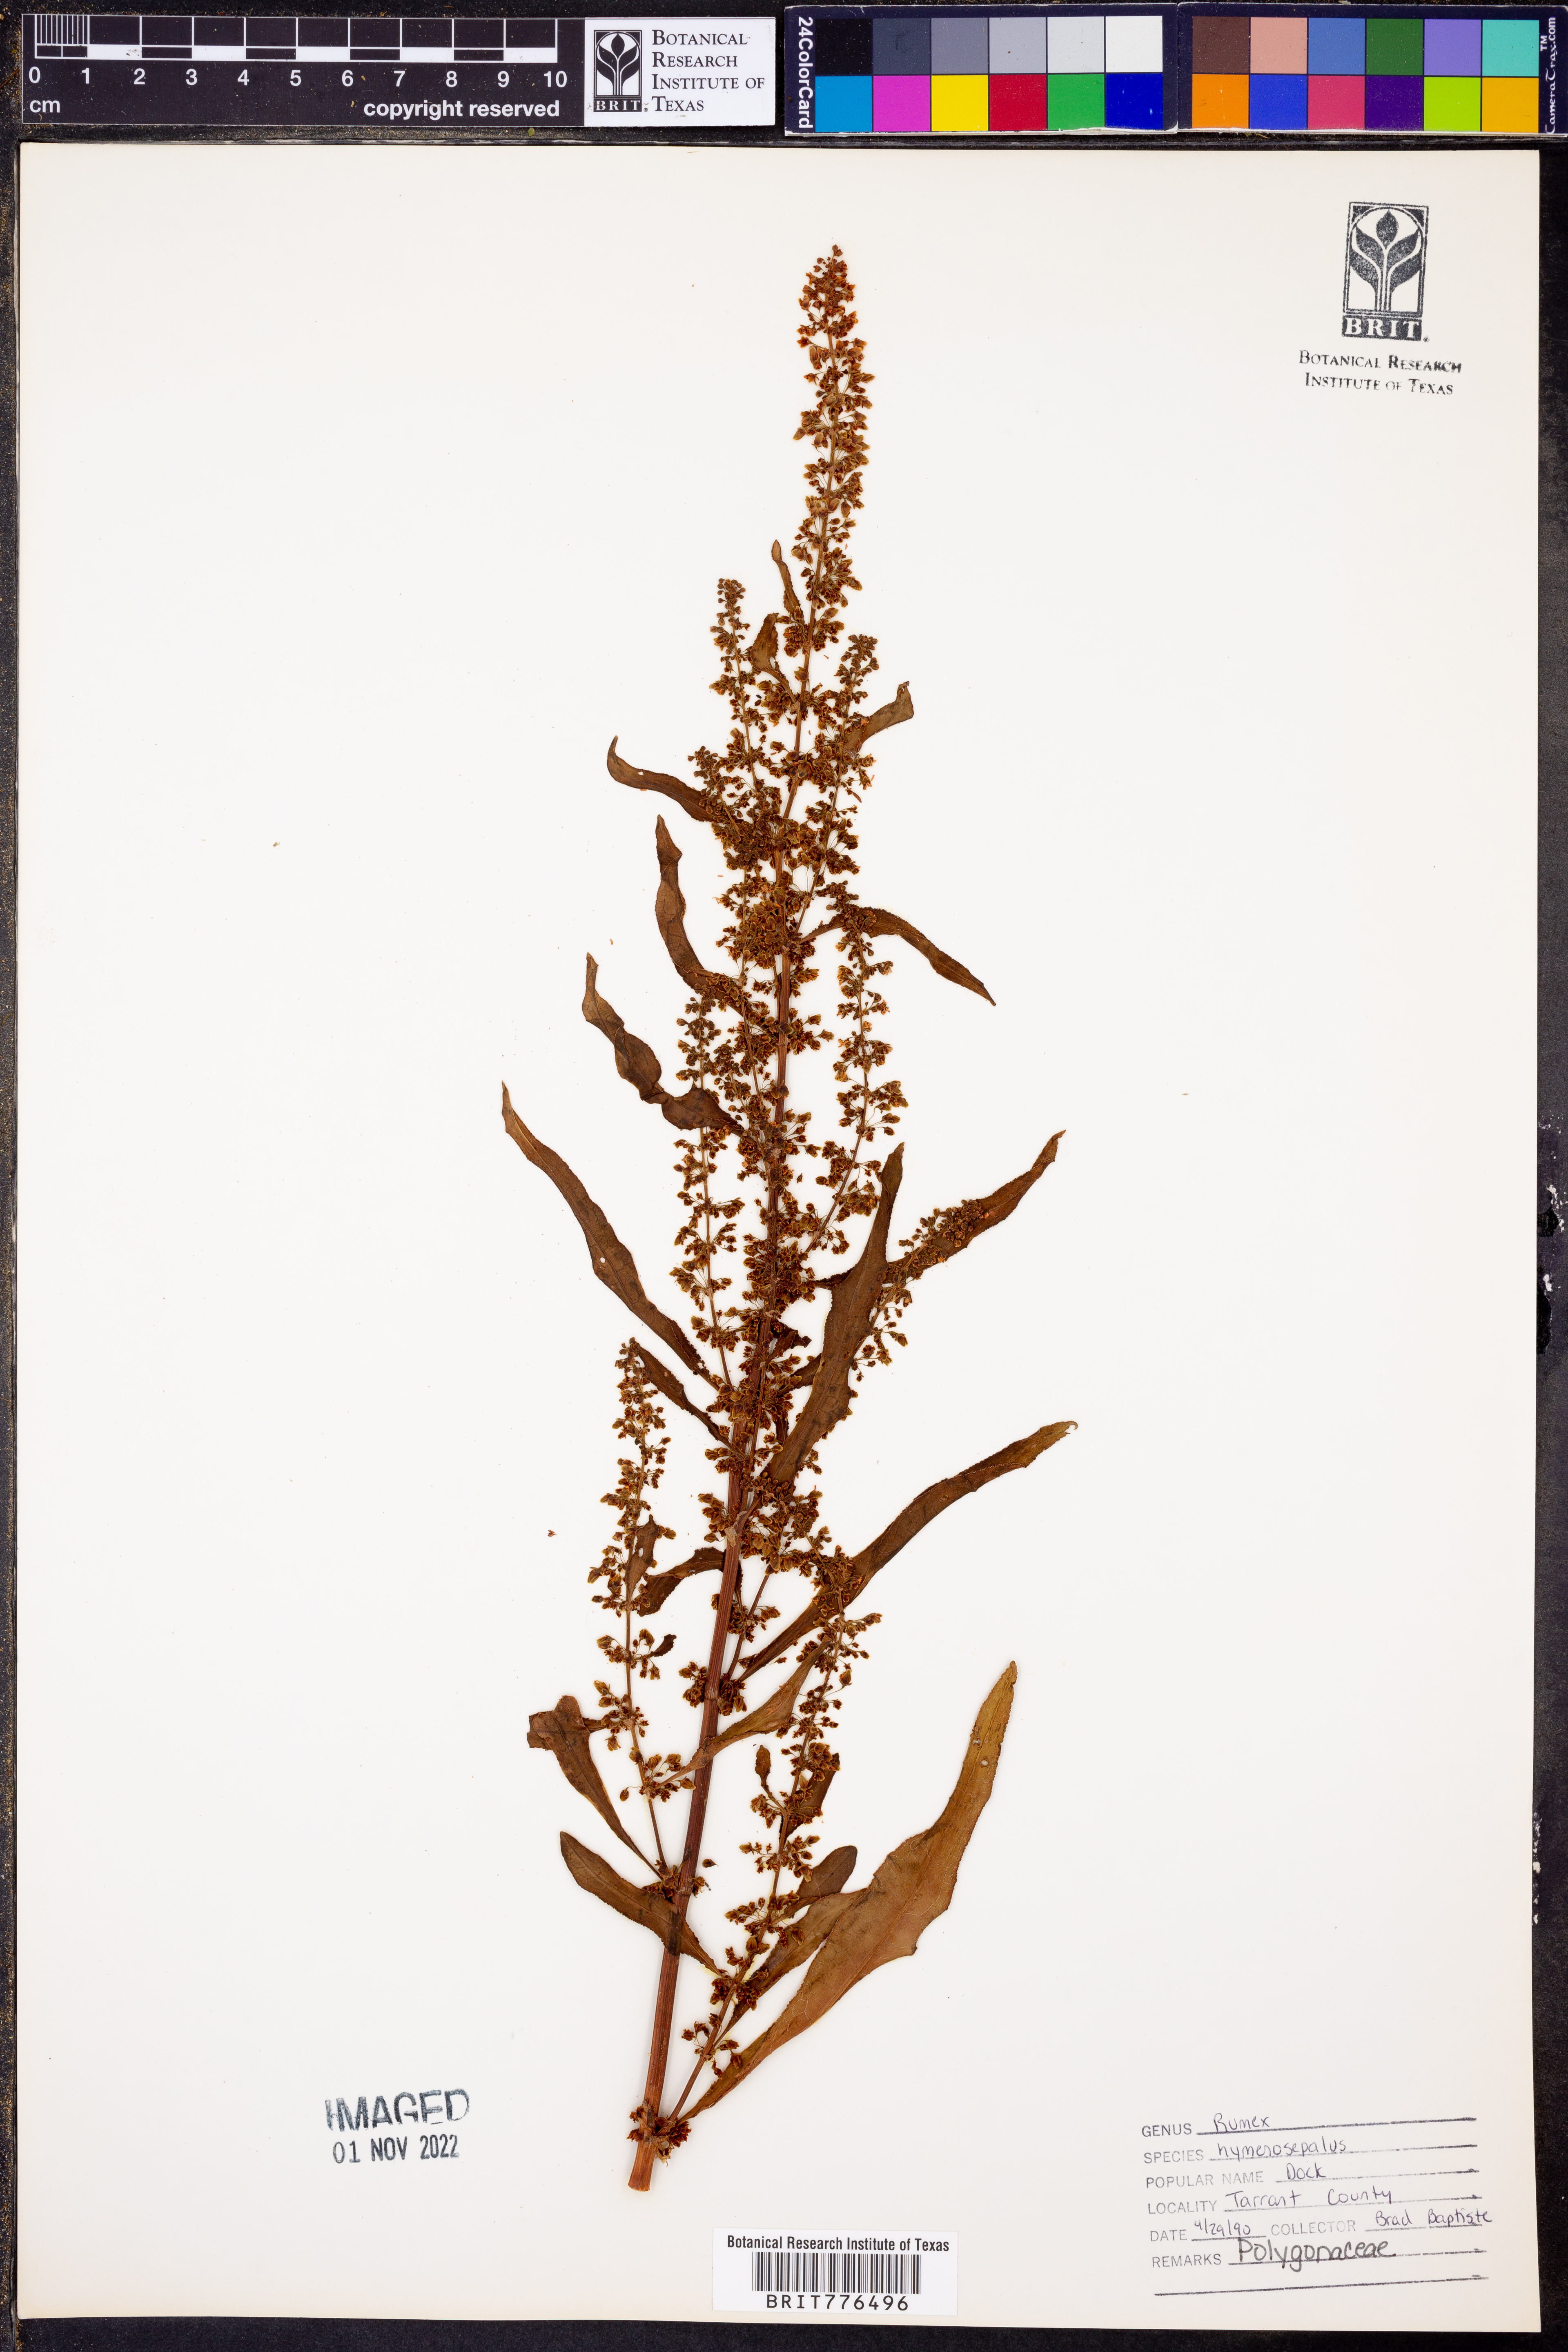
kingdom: Plantae
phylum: Tracheophyta
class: Magnoliopsida
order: Caryophyllales
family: Polygonaceae
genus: Rumex
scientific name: Rumex hymenosepalus
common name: Ganagra
